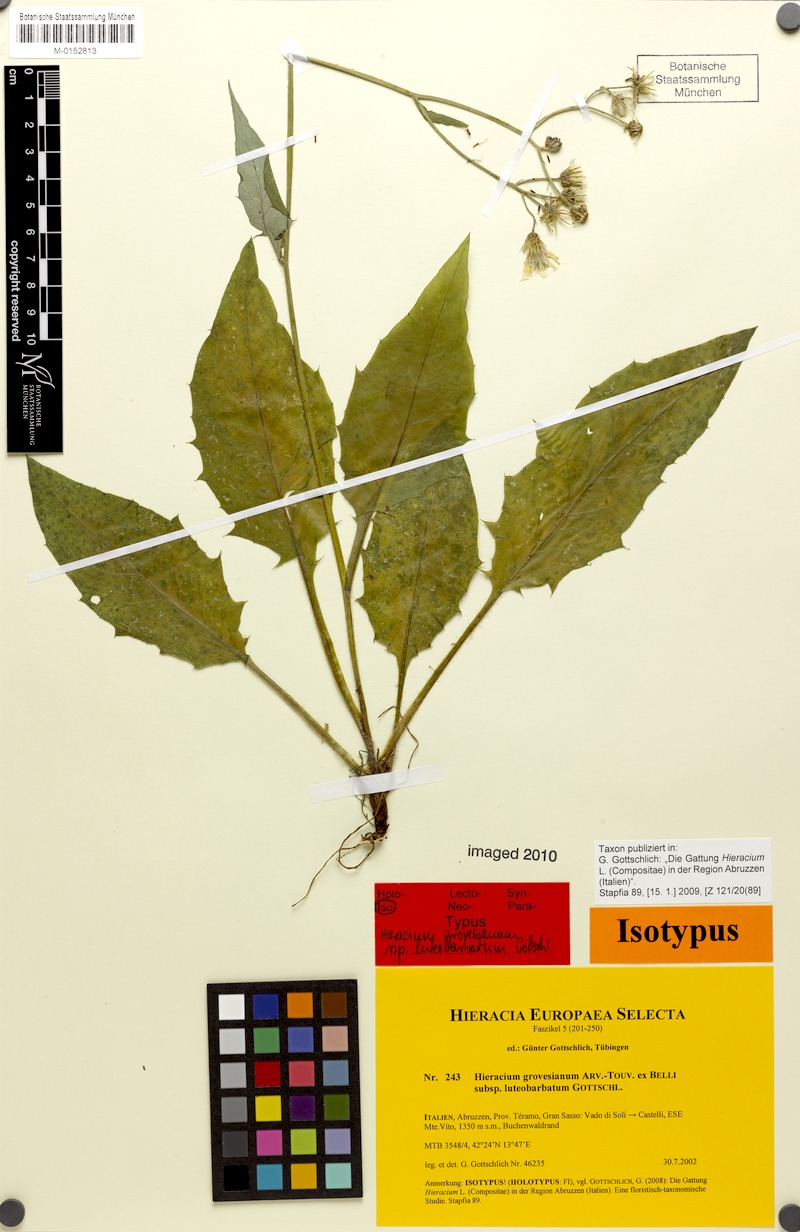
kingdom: Plantae
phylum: Tracheophyta
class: Magnoliopsida
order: Asterales
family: Asteraceae
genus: Hieracium
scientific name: Hieracium grovesianum
